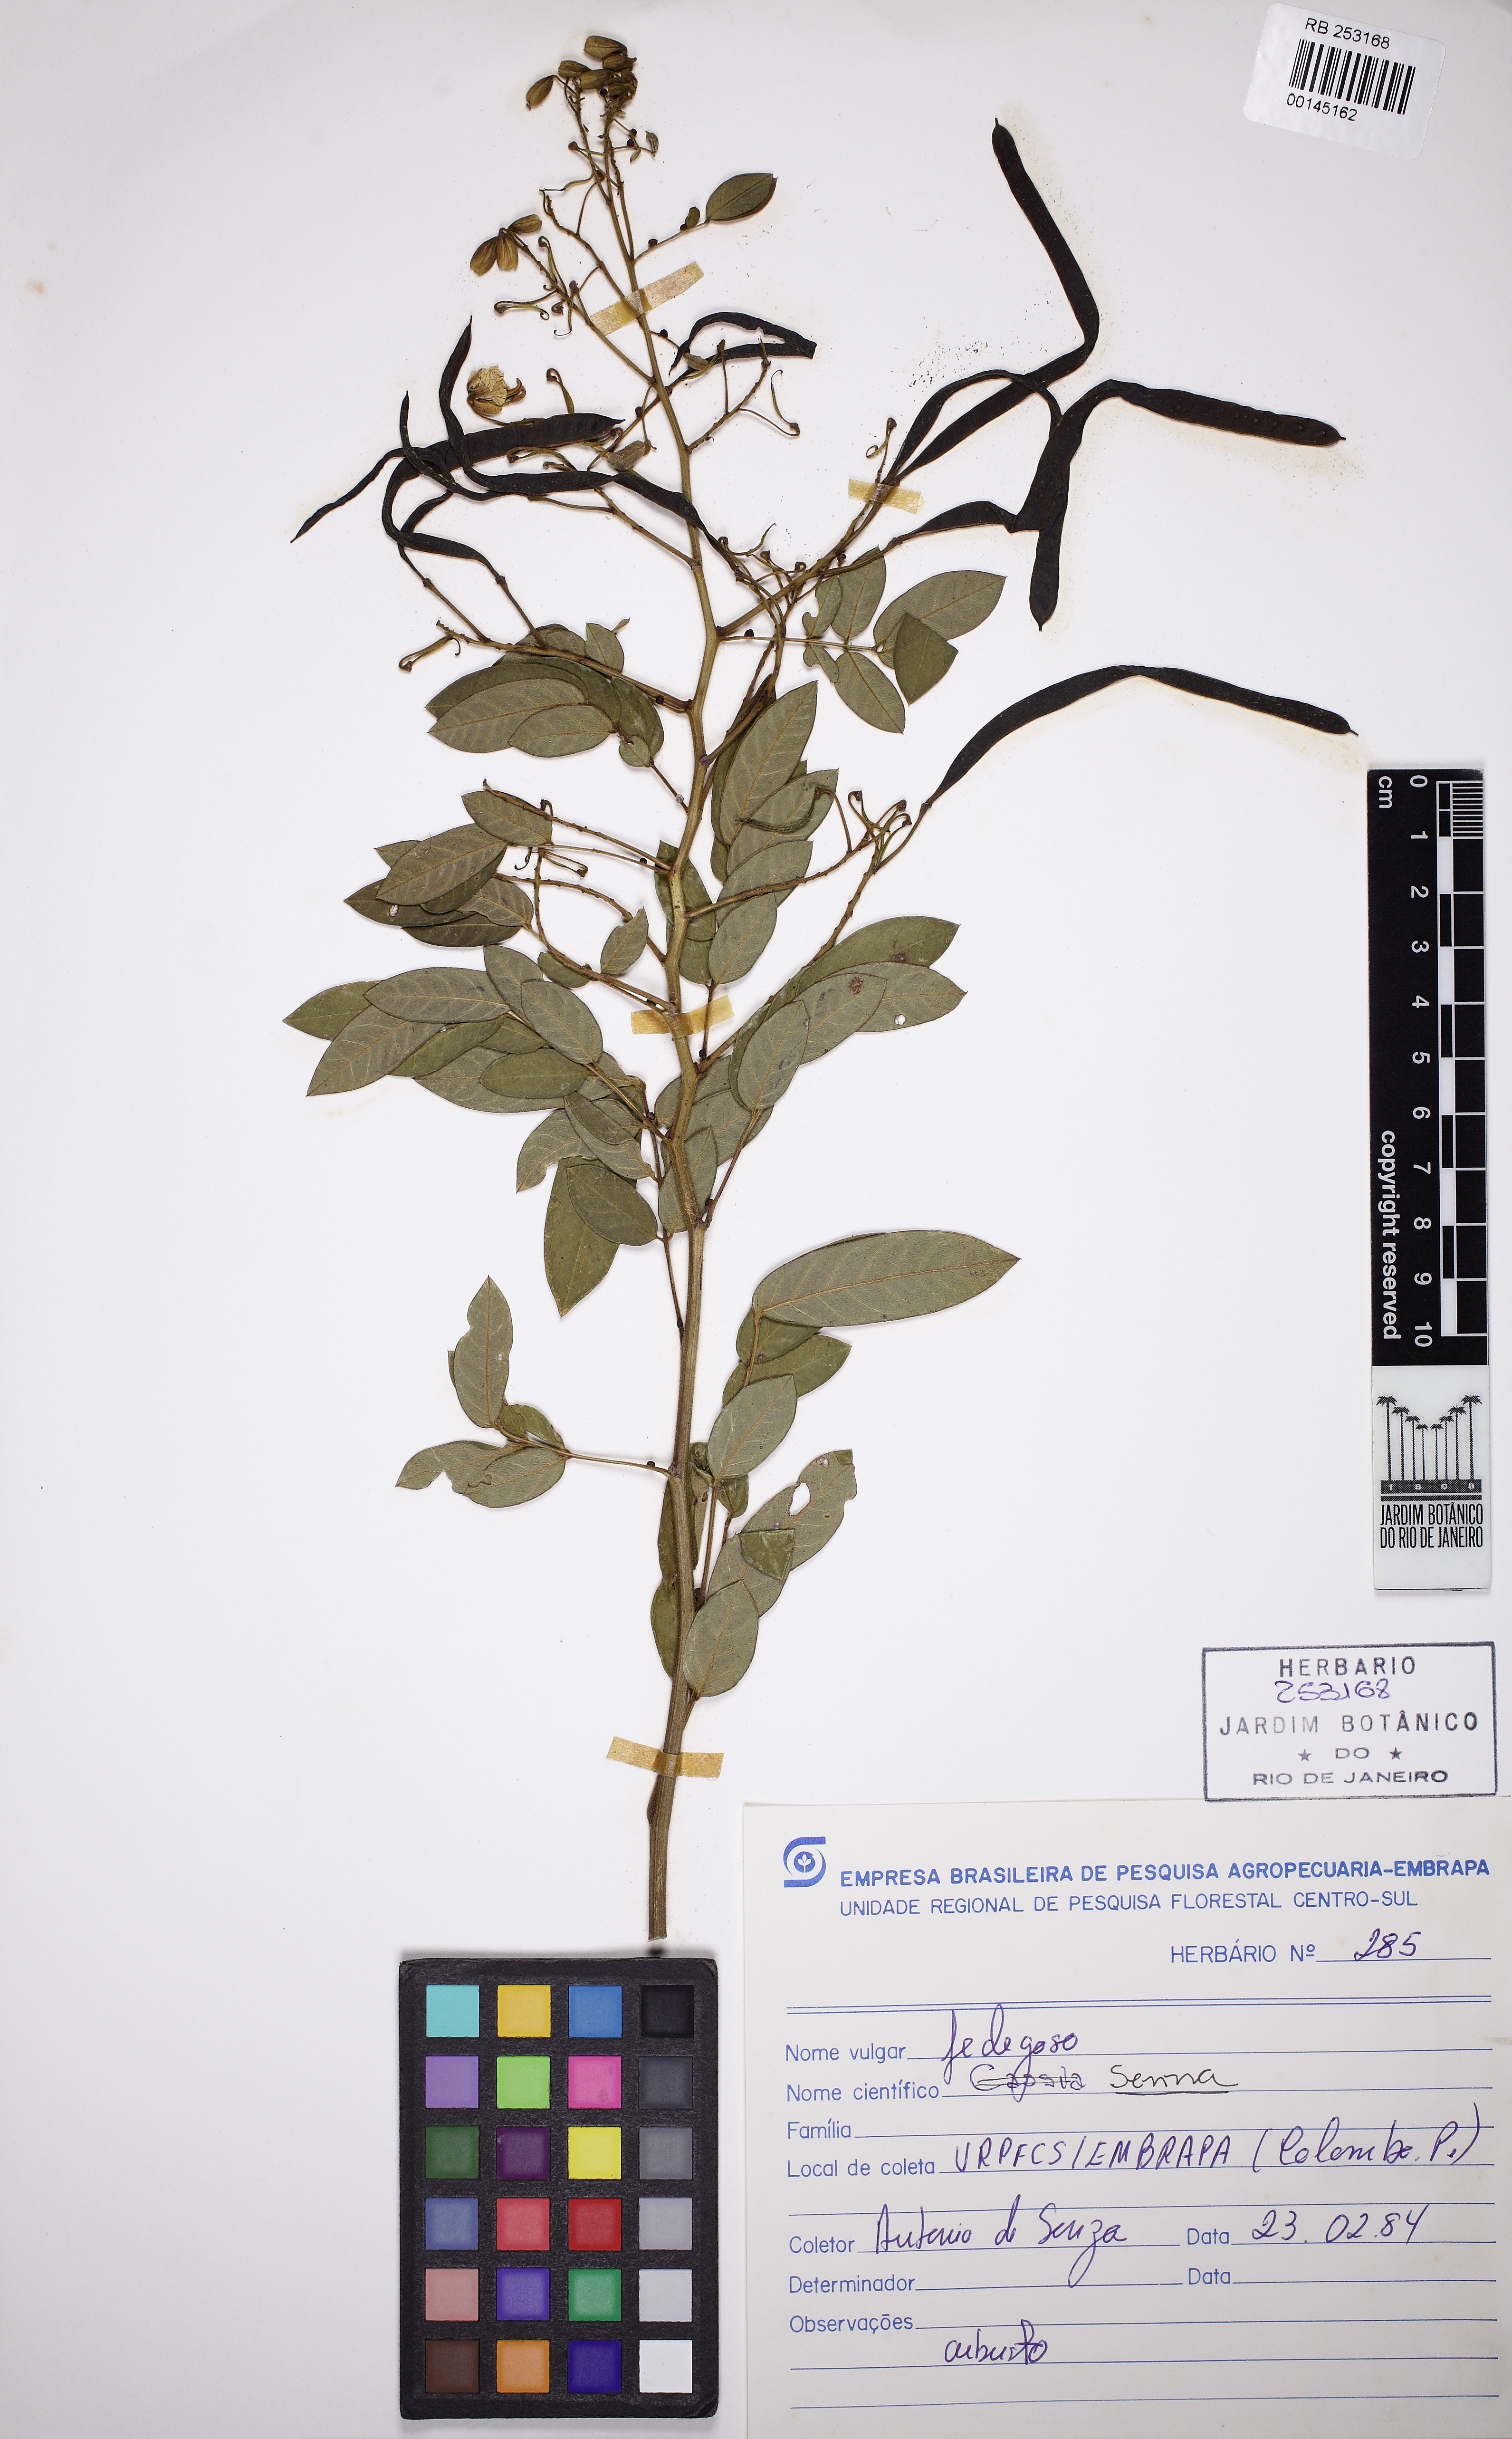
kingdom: Plantae
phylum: Tracheophyta
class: Magnoliopsida
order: Fabales
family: Fabaceae
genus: Senna
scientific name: Senna neglecta
